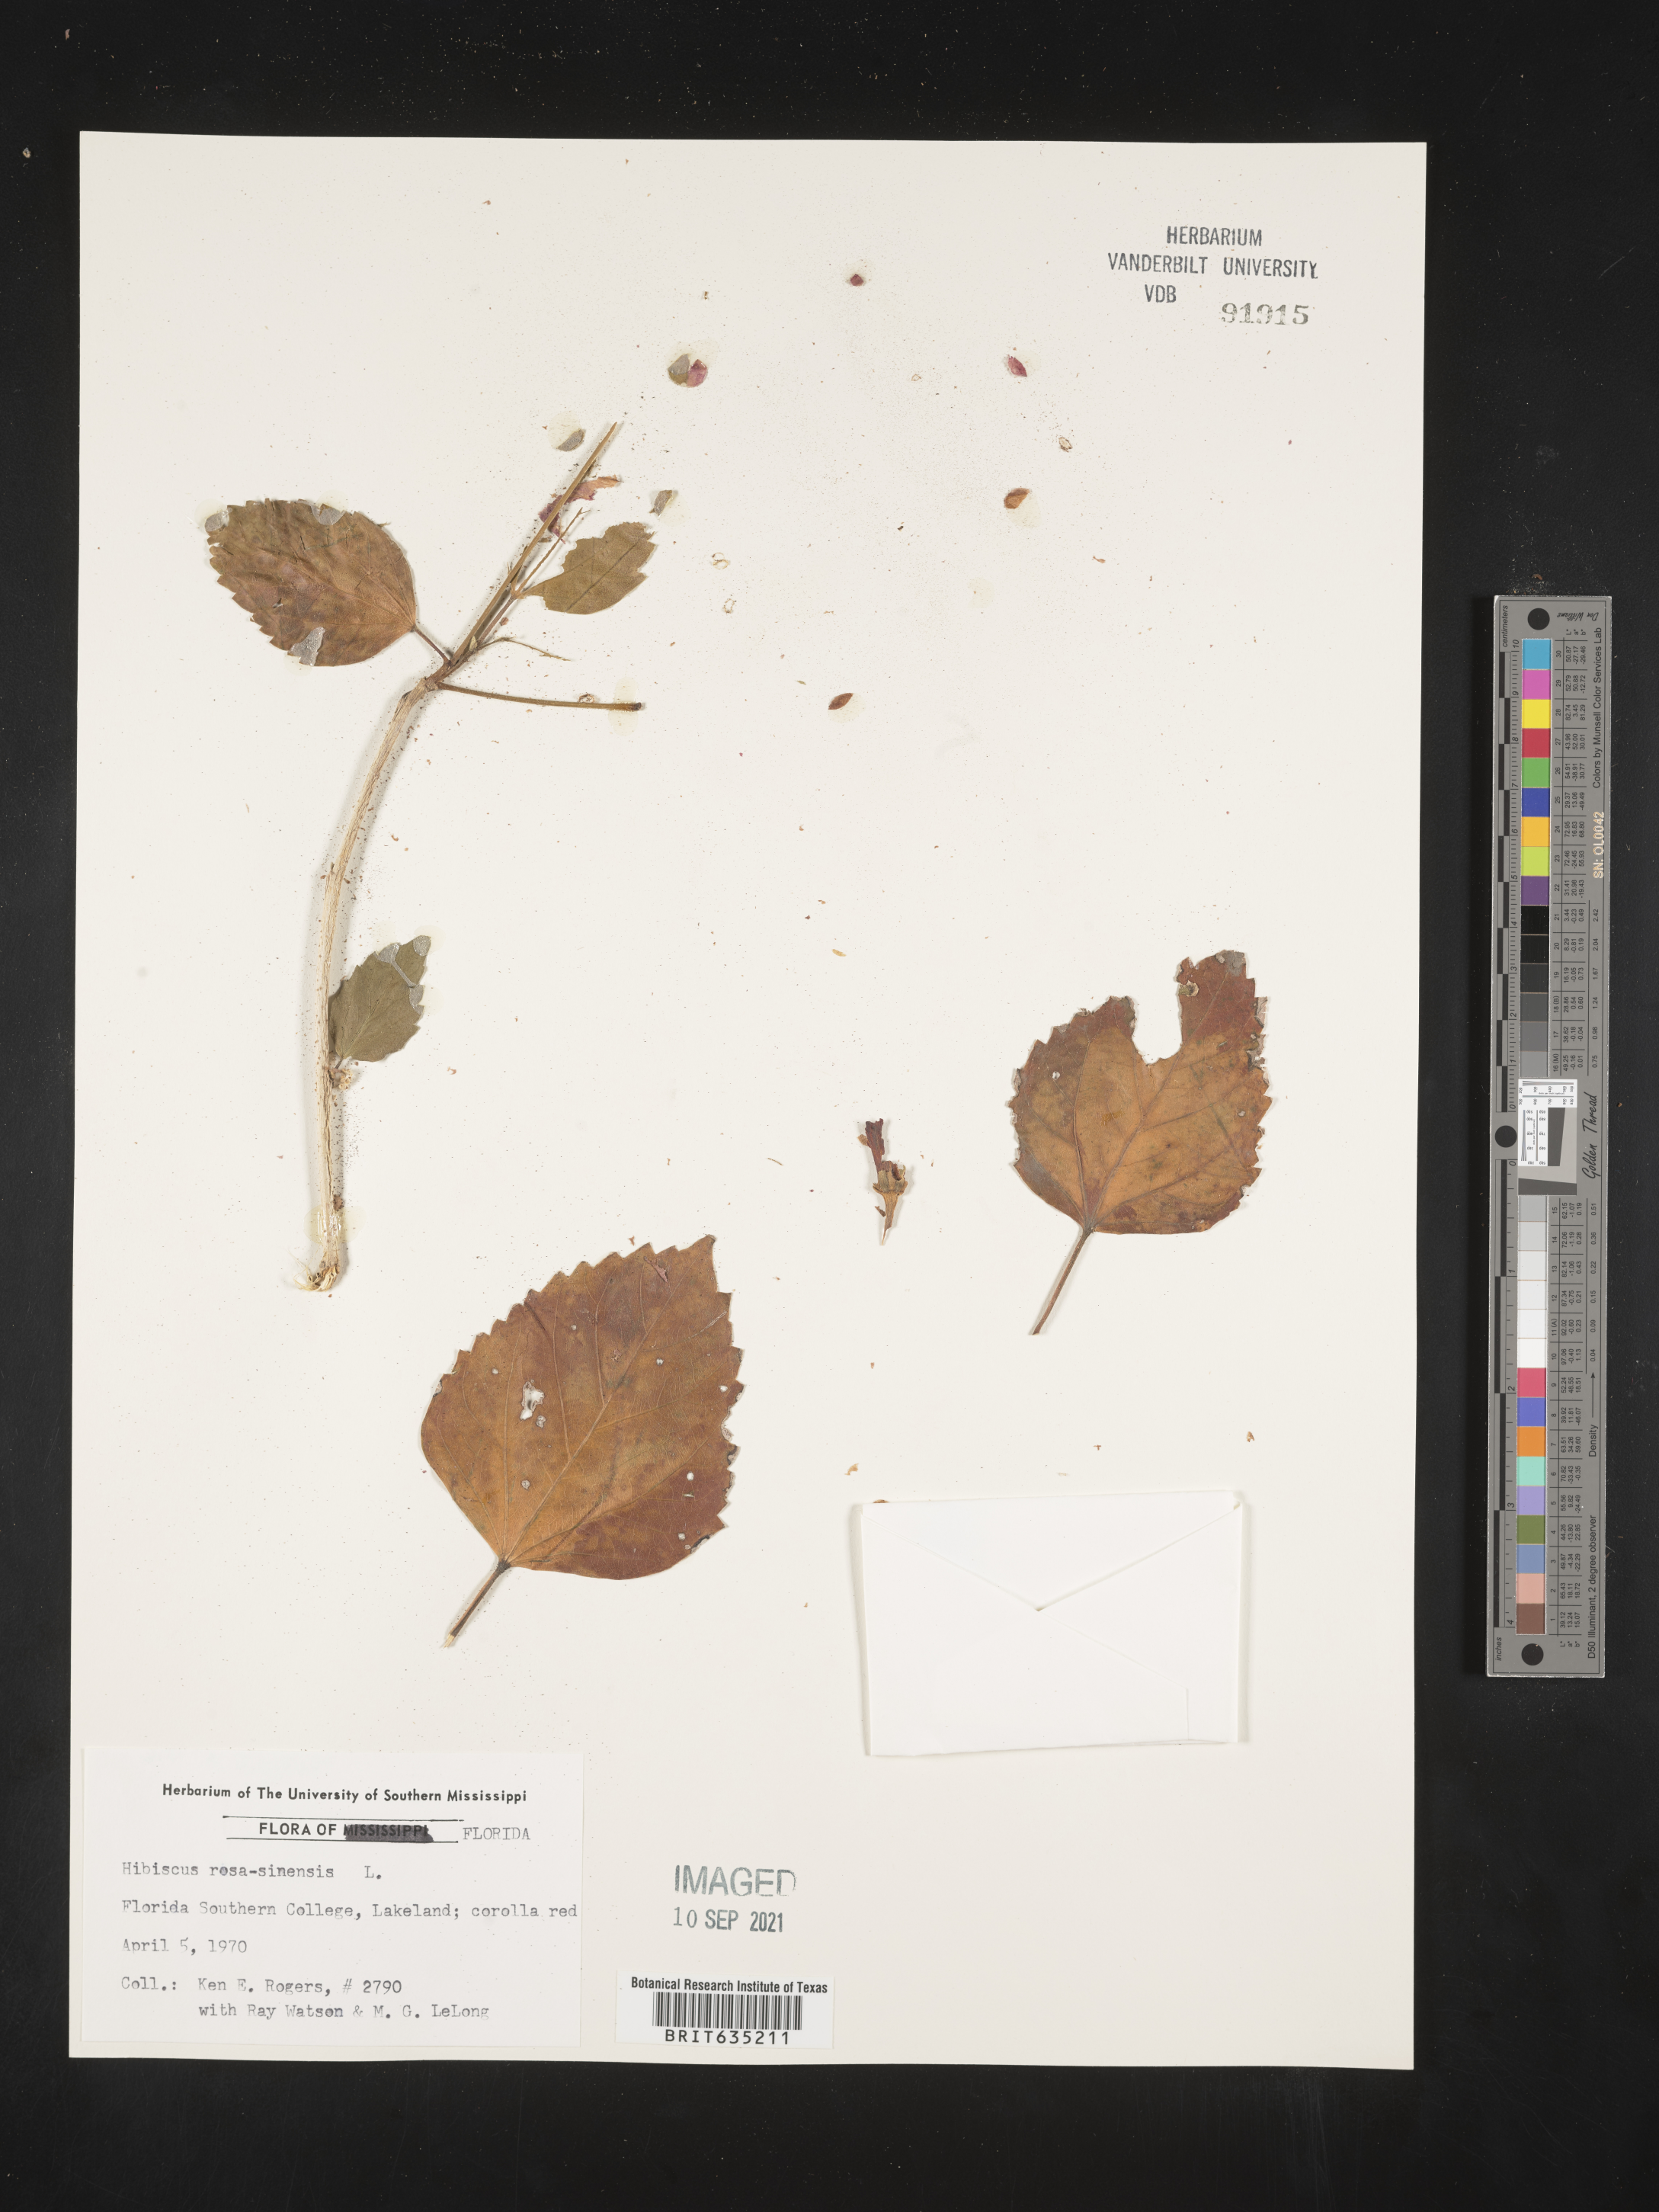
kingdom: Plantae
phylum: Tracheophyta
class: Magnoliopsida
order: Malvales
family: Malvaceae
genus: Hibiscus
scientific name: Hibiscus
